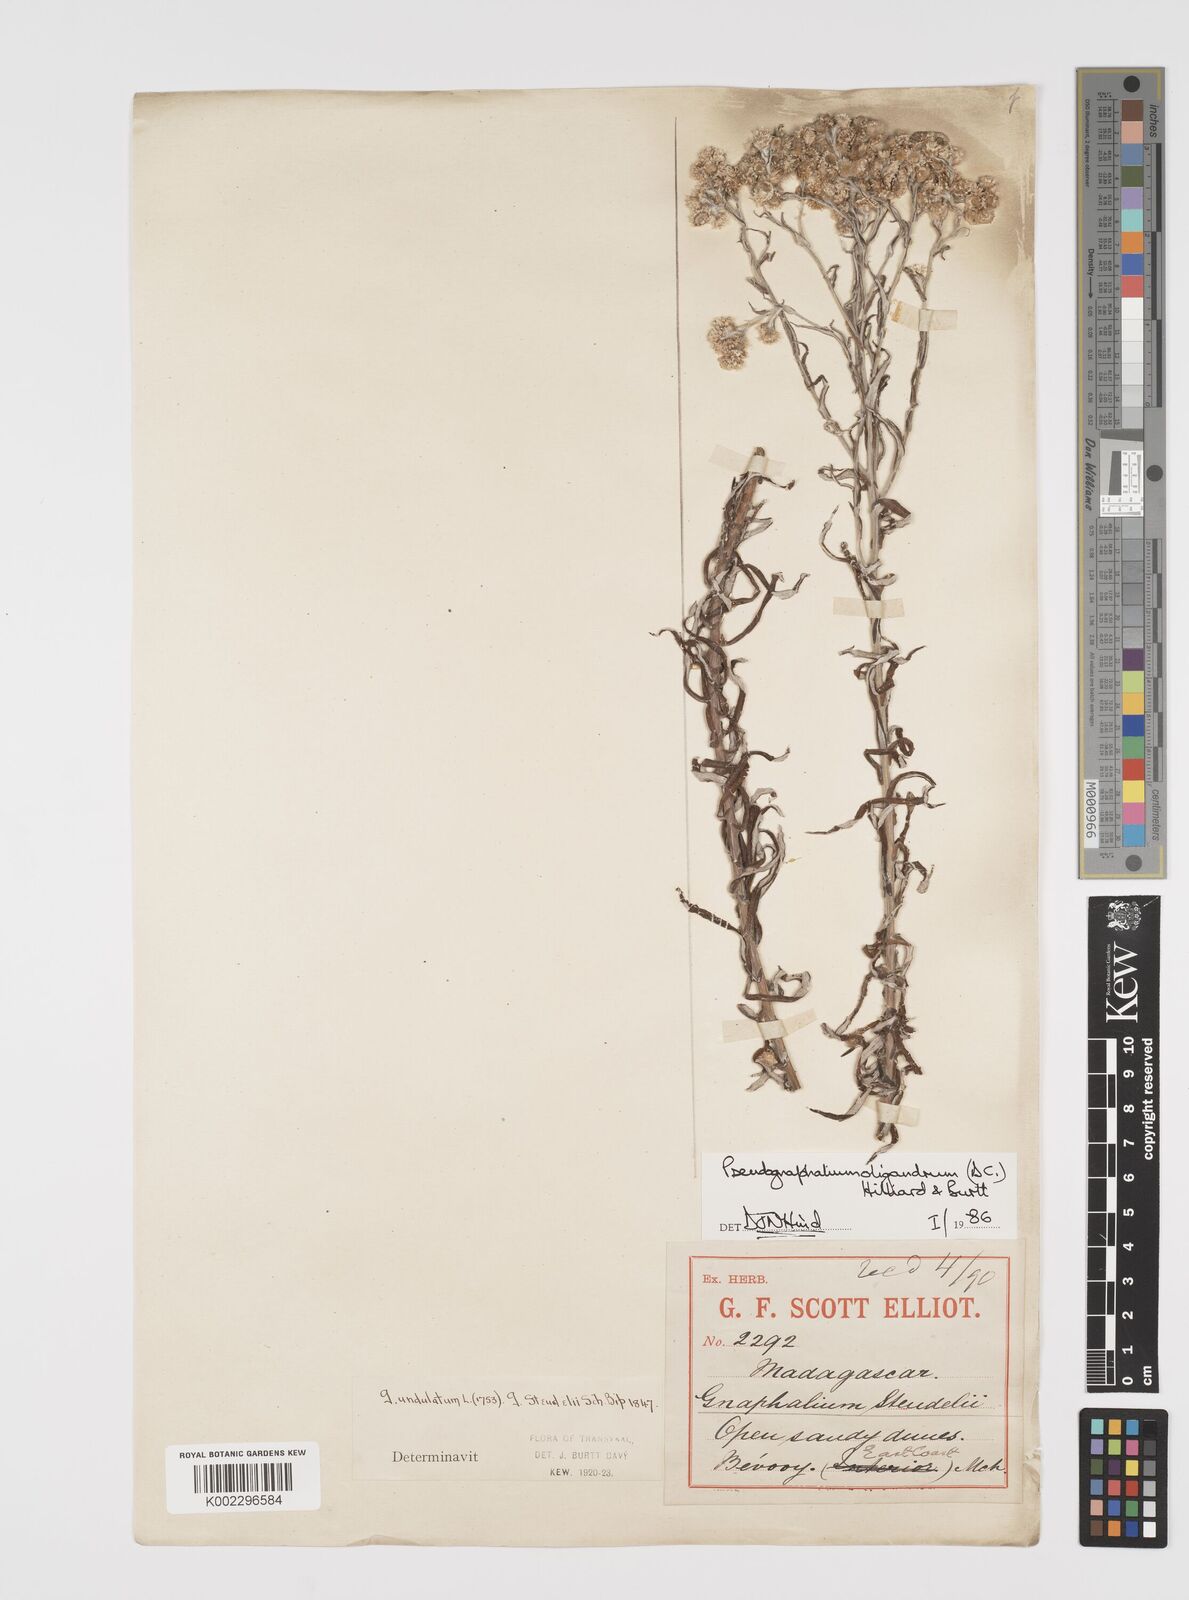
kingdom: Plantae
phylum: Tracheophyta
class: Magnoliopsida
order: Asterales
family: Asteraceae
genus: Pseudognaphalium
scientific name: Pseudognaphalium oligandrum
